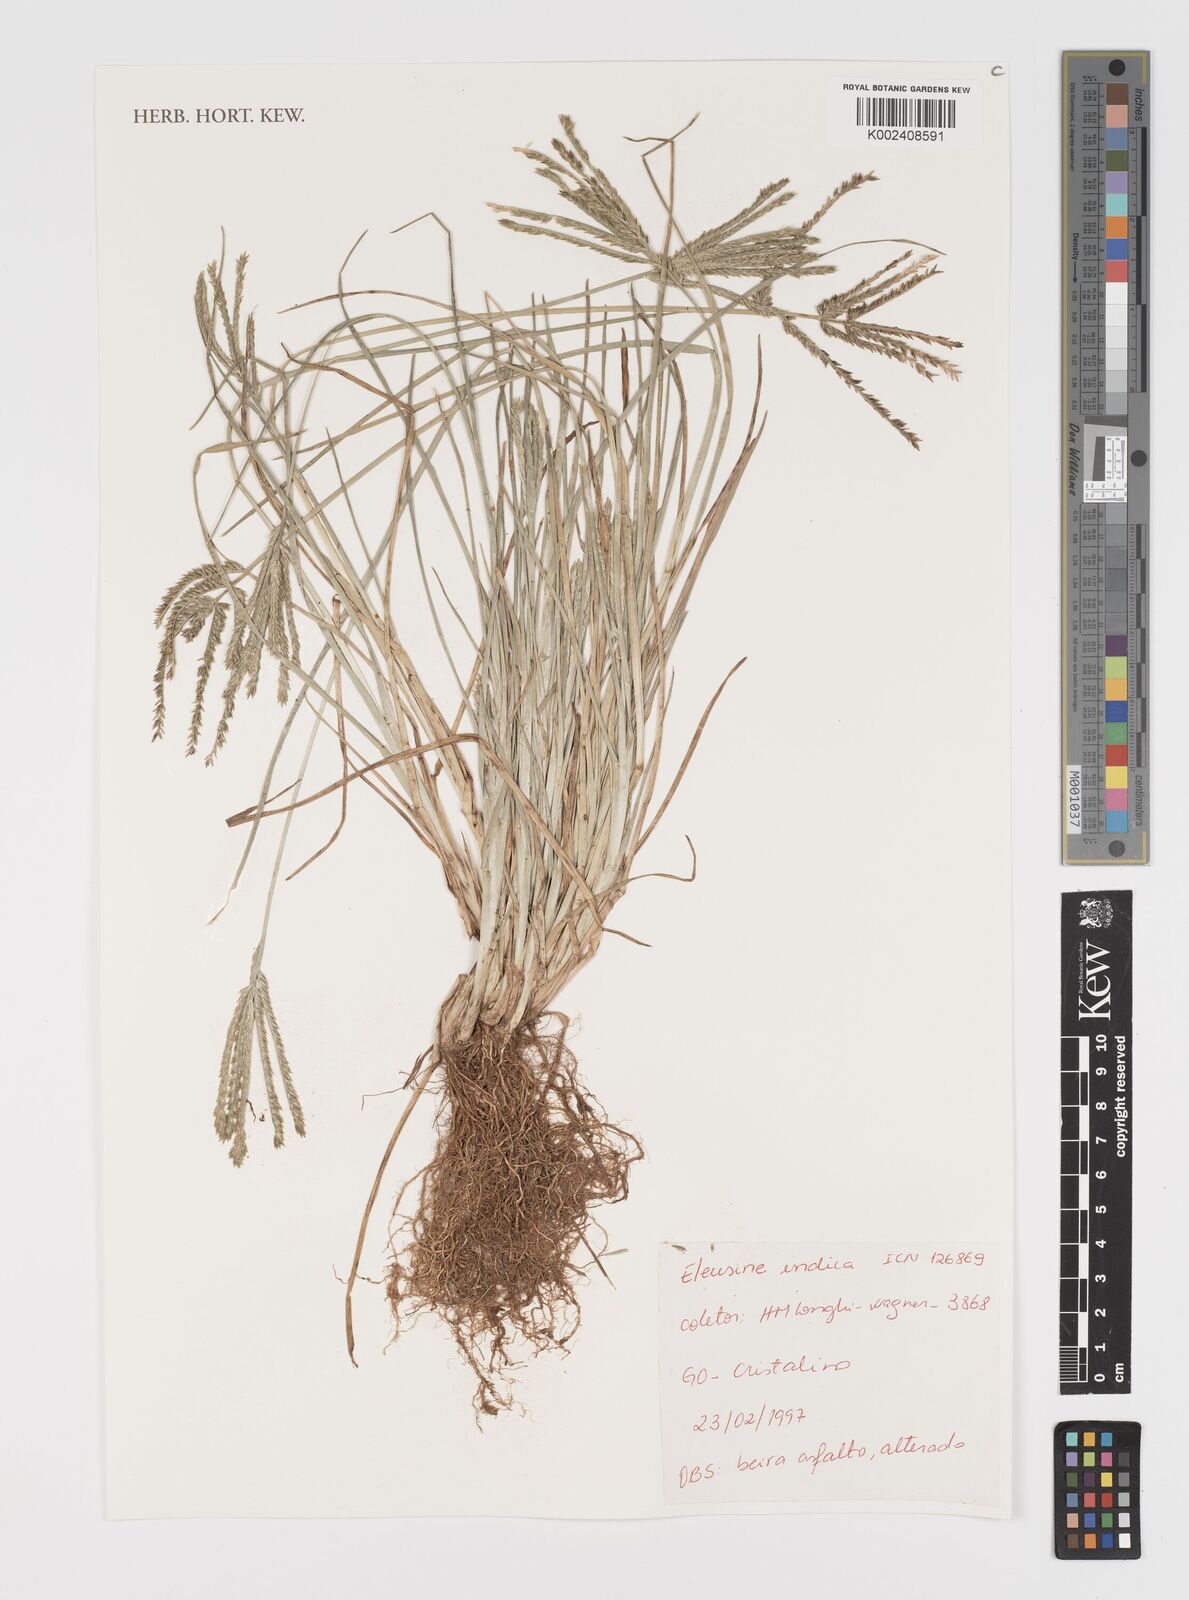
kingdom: Plantae
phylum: Tracheophyta
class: Liliopsida
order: Poales
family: Poaceae
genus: Eleusine
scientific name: Eleusine indica
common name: Yard-grass
